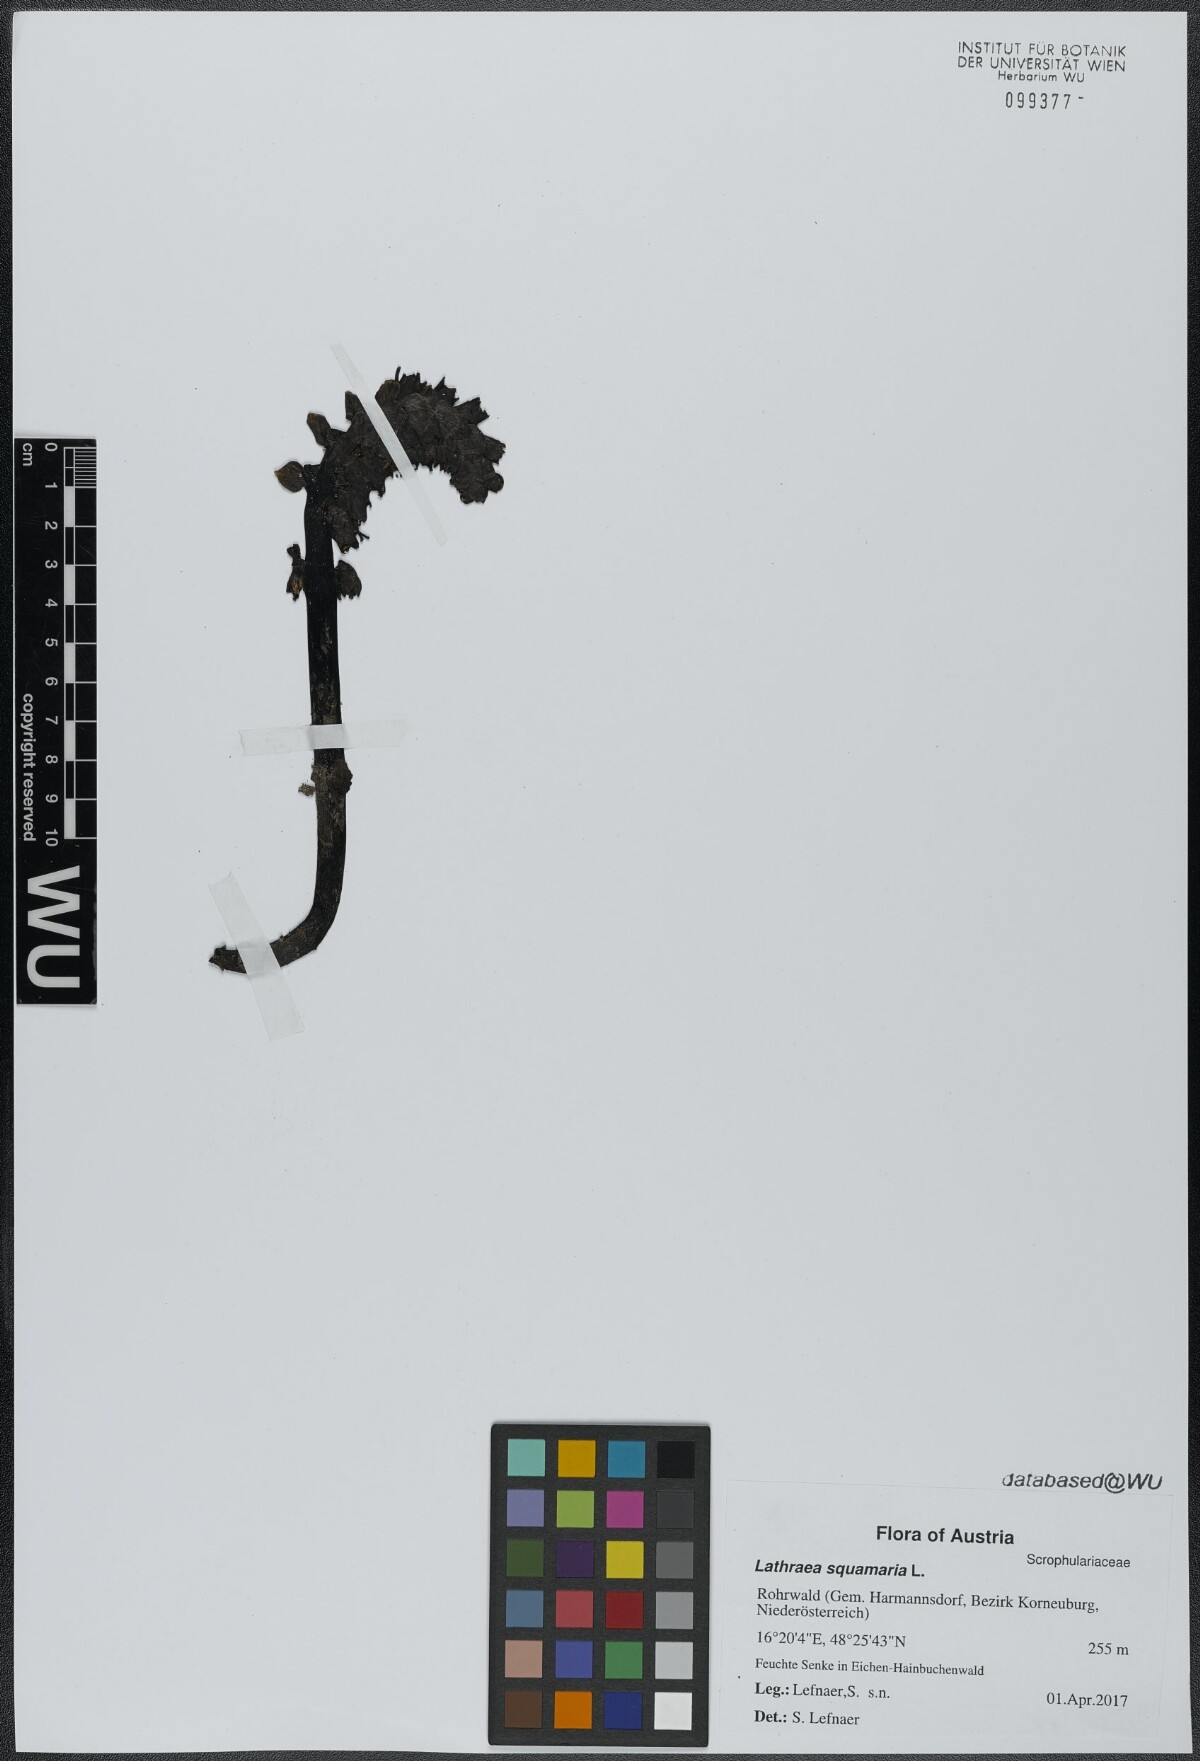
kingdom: Plantae
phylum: Tracheophyta
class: Magnoliopsida
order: Lamiales
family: Orobanchaceae
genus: Lathraea
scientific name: Lathraea squamaria
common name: Toothwort
